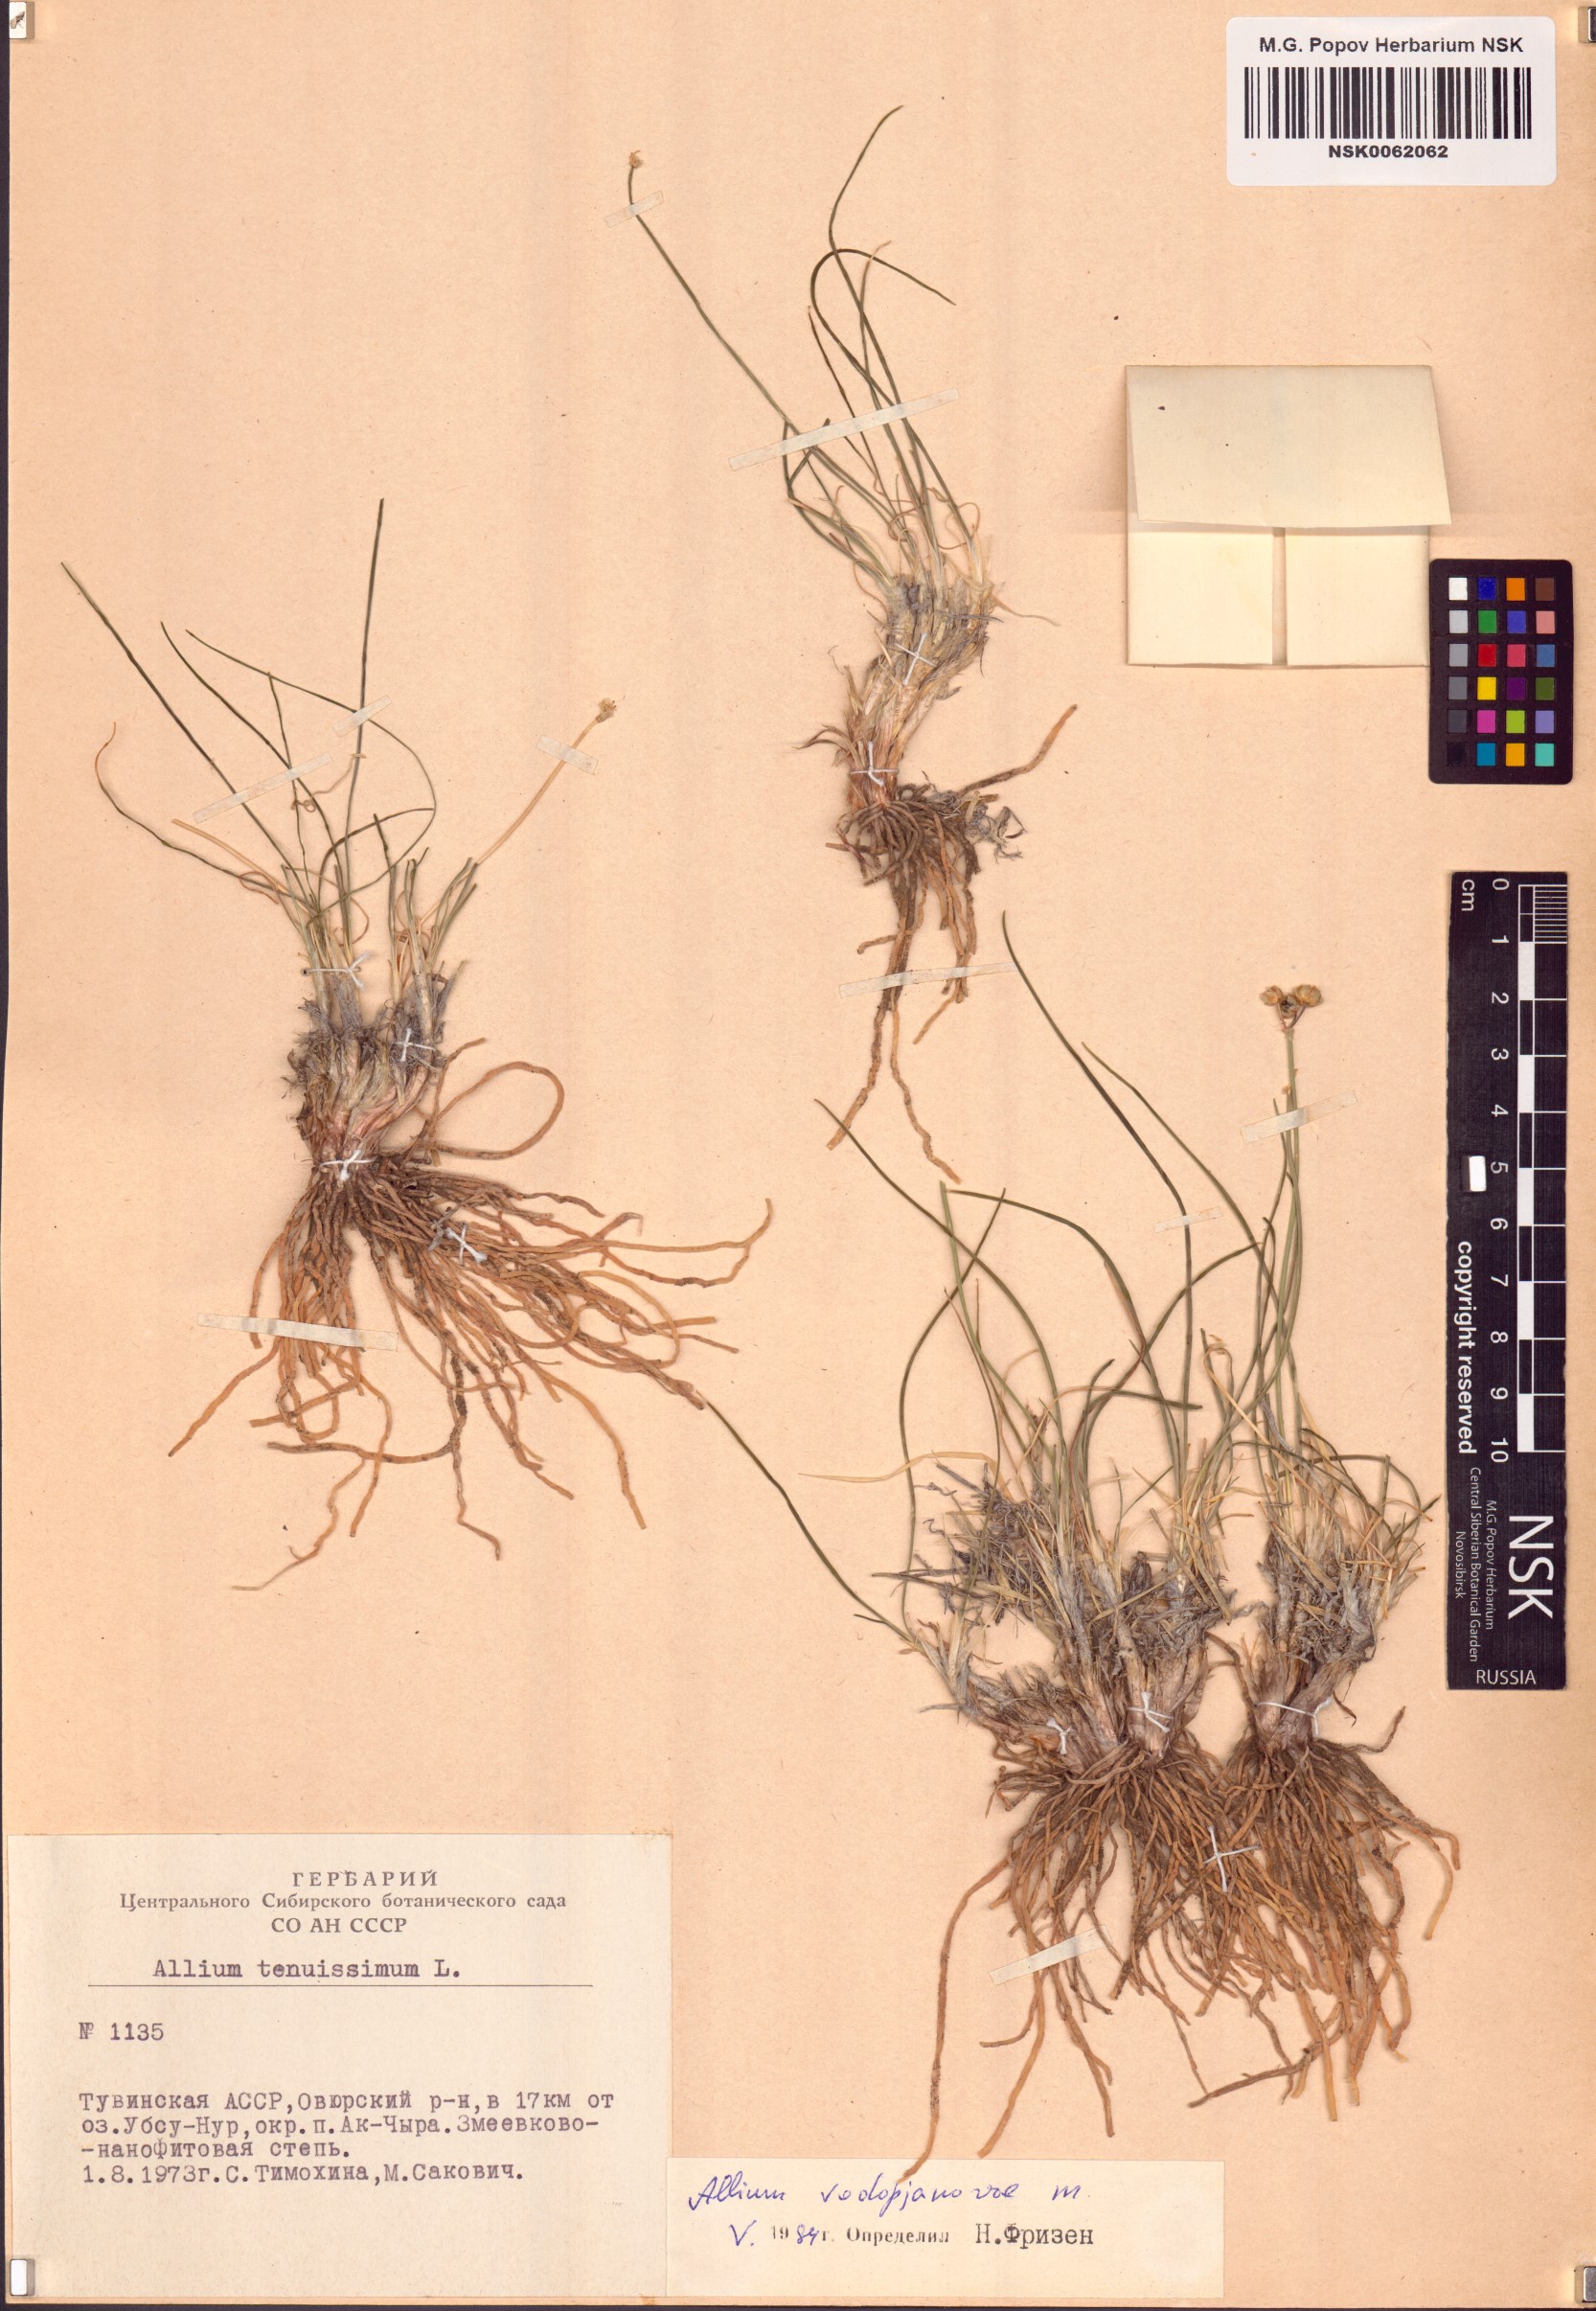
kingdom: Plantae
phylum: Tracheophyta
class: Liliopsida
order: Asparagales
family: Amaryllidaceae
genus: Allium
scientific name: Allium vodopjanovae
